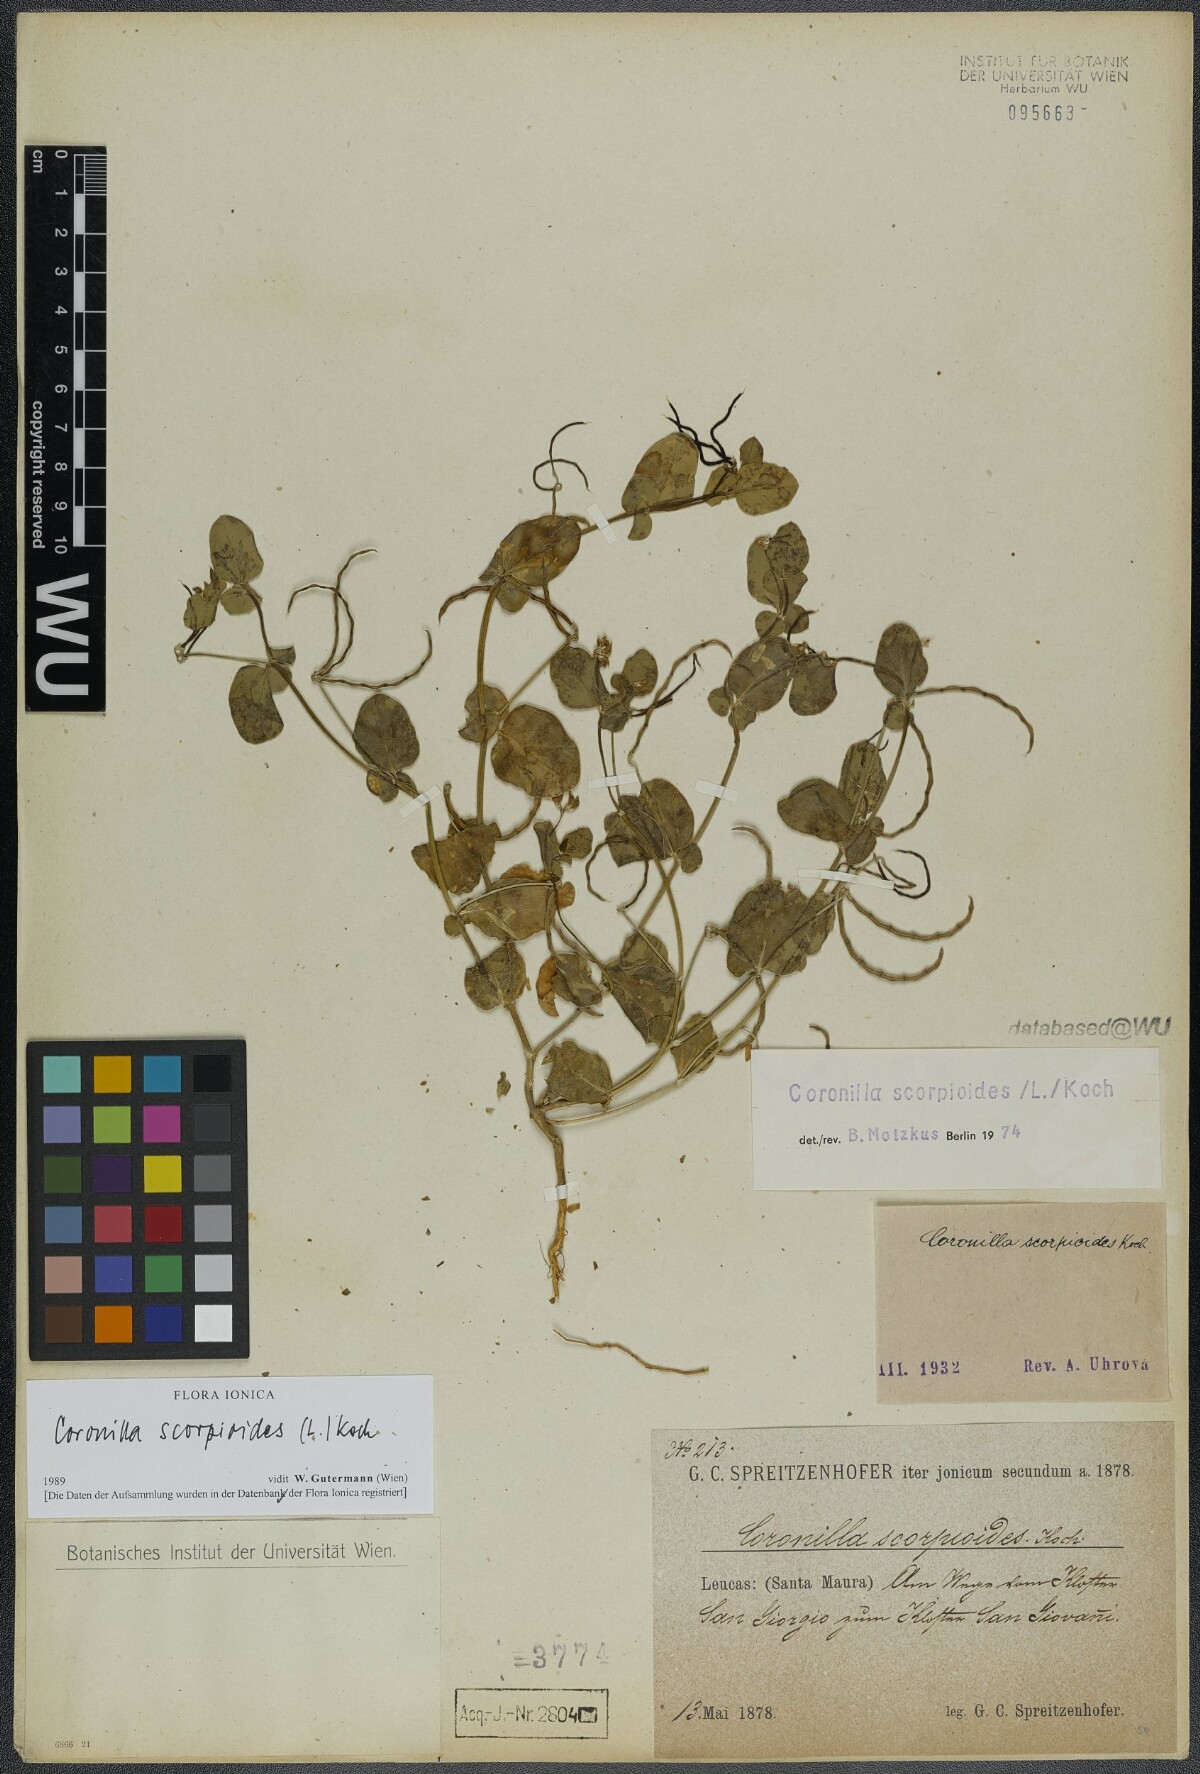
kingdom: Plantae
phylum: Tracheophyta
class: Magnoliopsida
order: Fabales
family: Fabaceae
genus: Coronilla
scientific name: Coronilla scorpioides
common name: Annual scorpion-vetch
